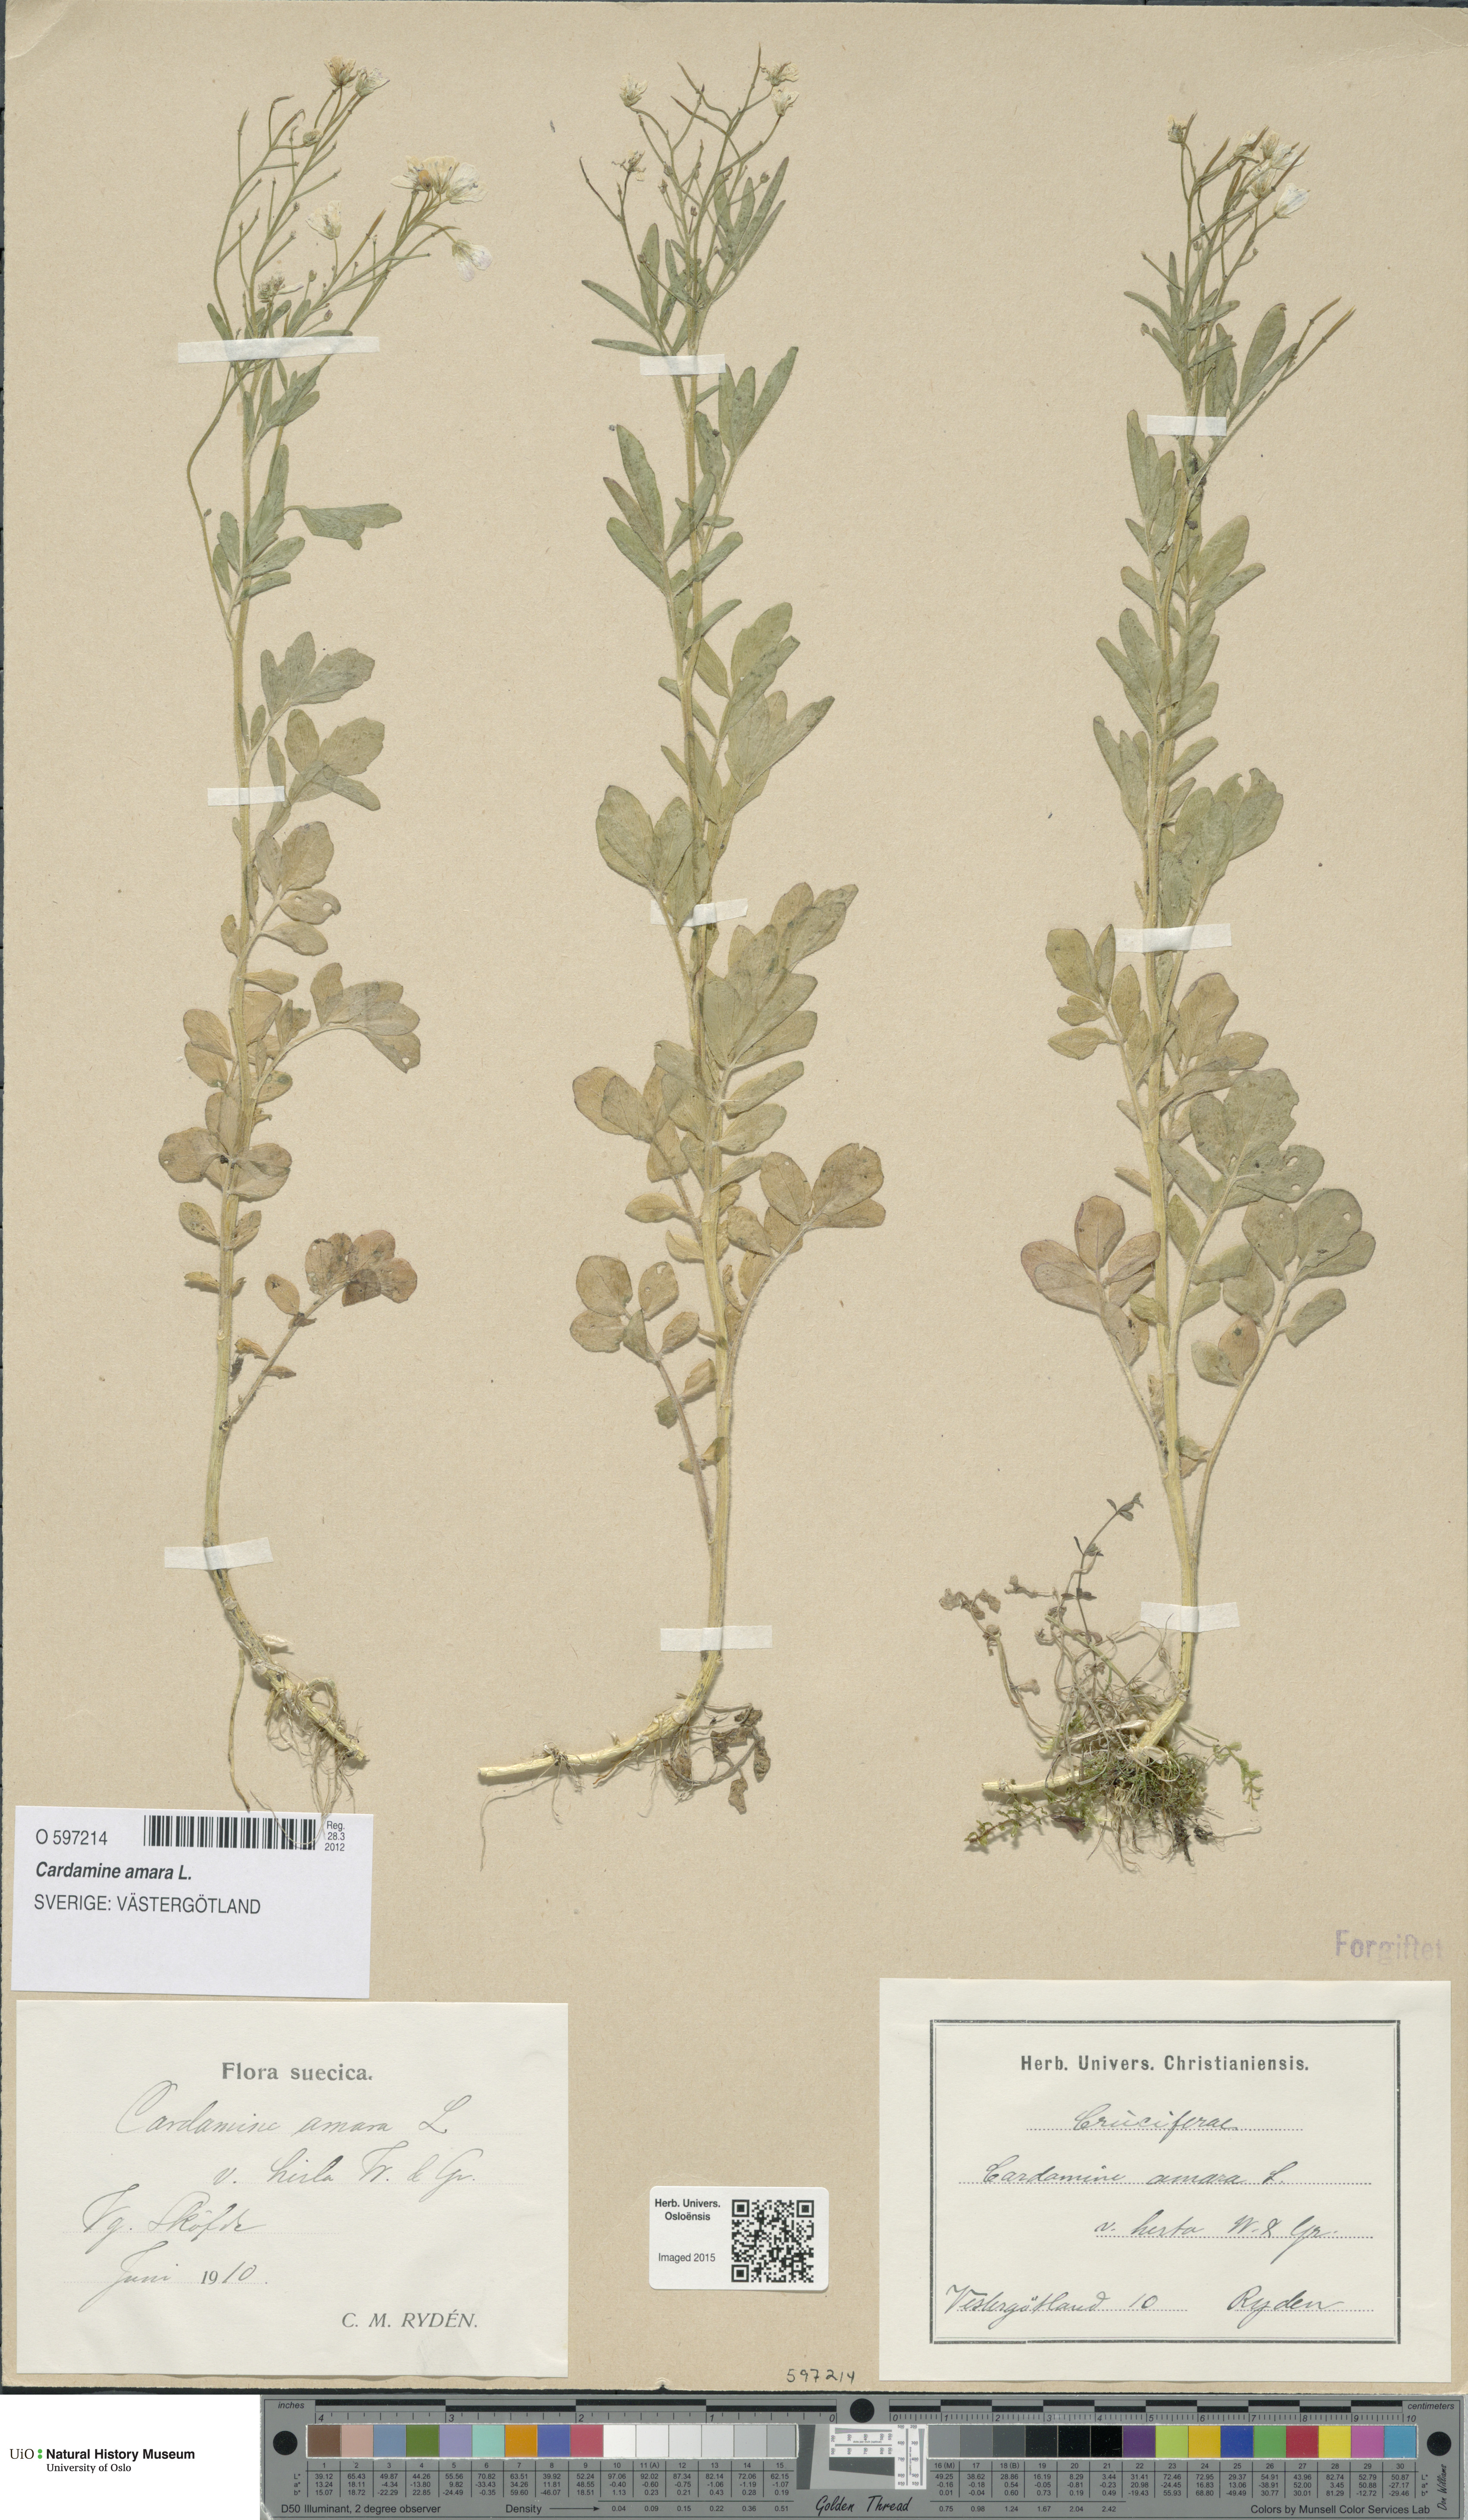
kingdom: Plantae
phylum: Tracheophyta
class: Magnoliopsida
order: Brassicales
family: Brassicaceae
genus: Cardamine
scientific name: Cardamine amara
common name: Large bitter-cress
